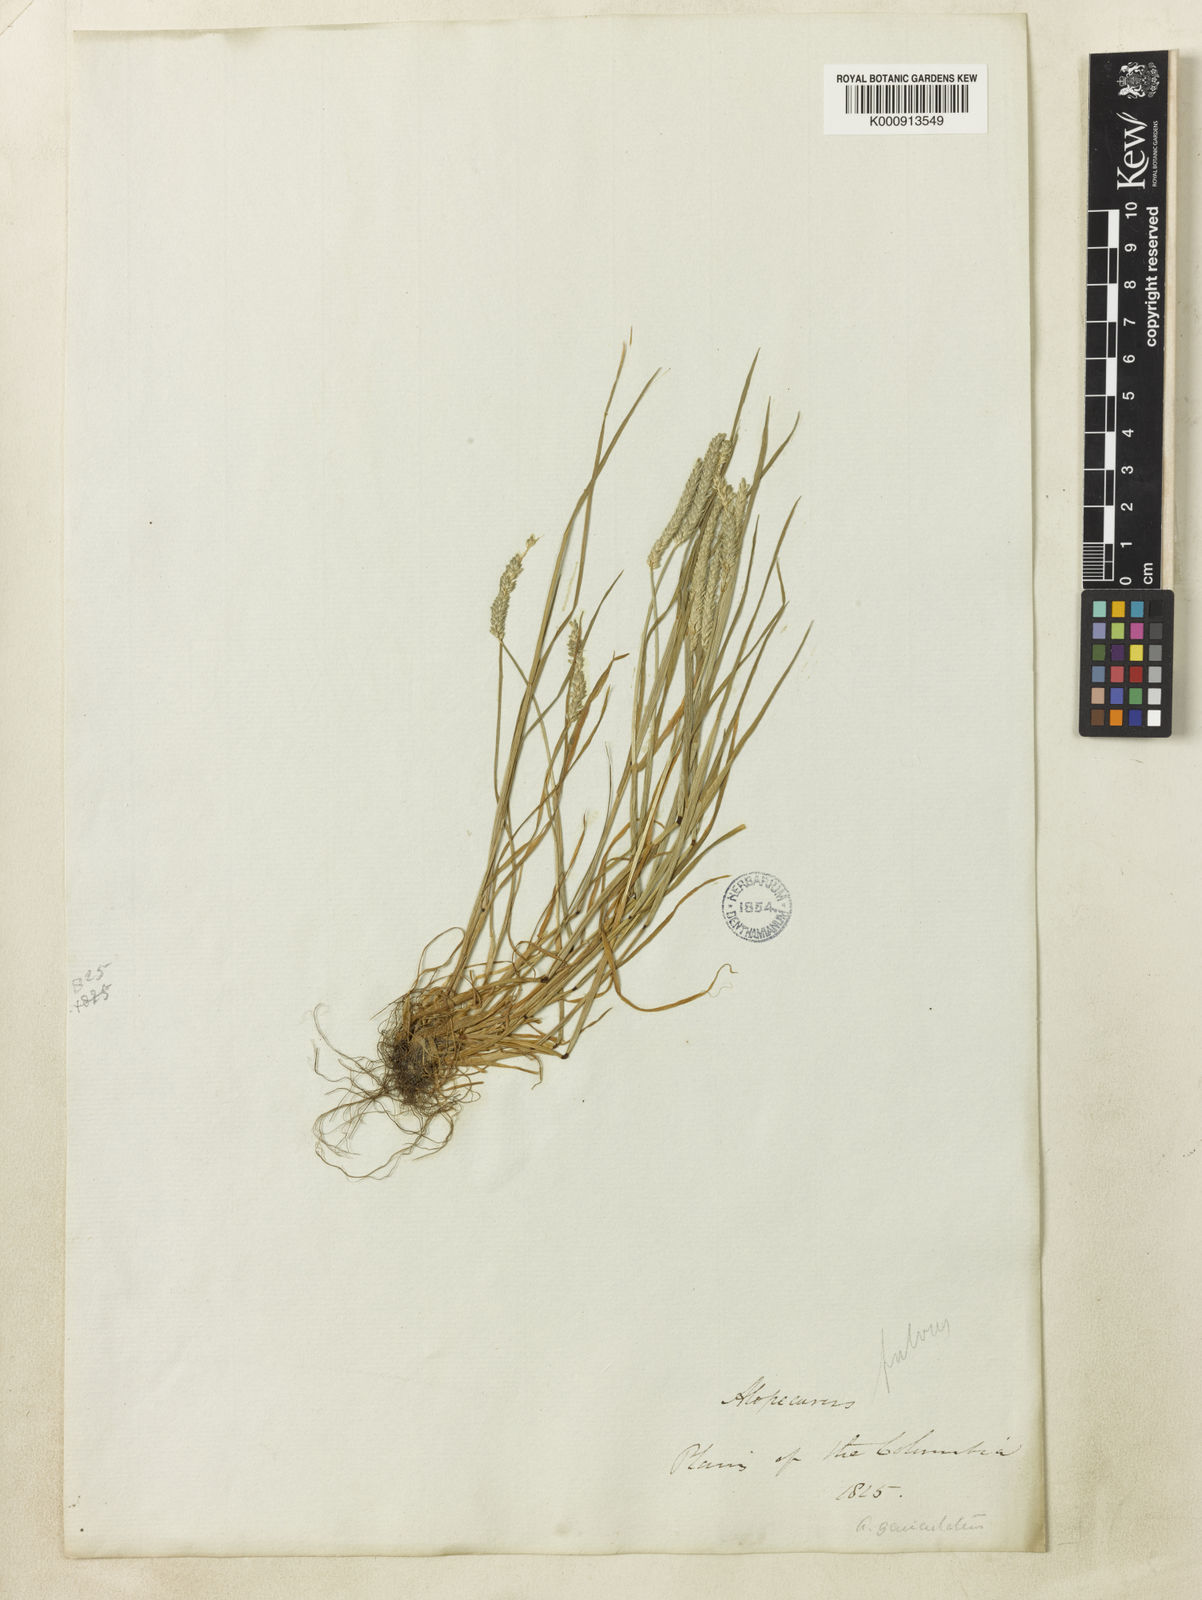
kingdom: Plantae
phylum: Tracheophyta
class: Liliopsida
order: Poales
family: Poaceae
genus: Alopecurus
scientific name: Alopecurus aequalis
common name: Orange foxtail
